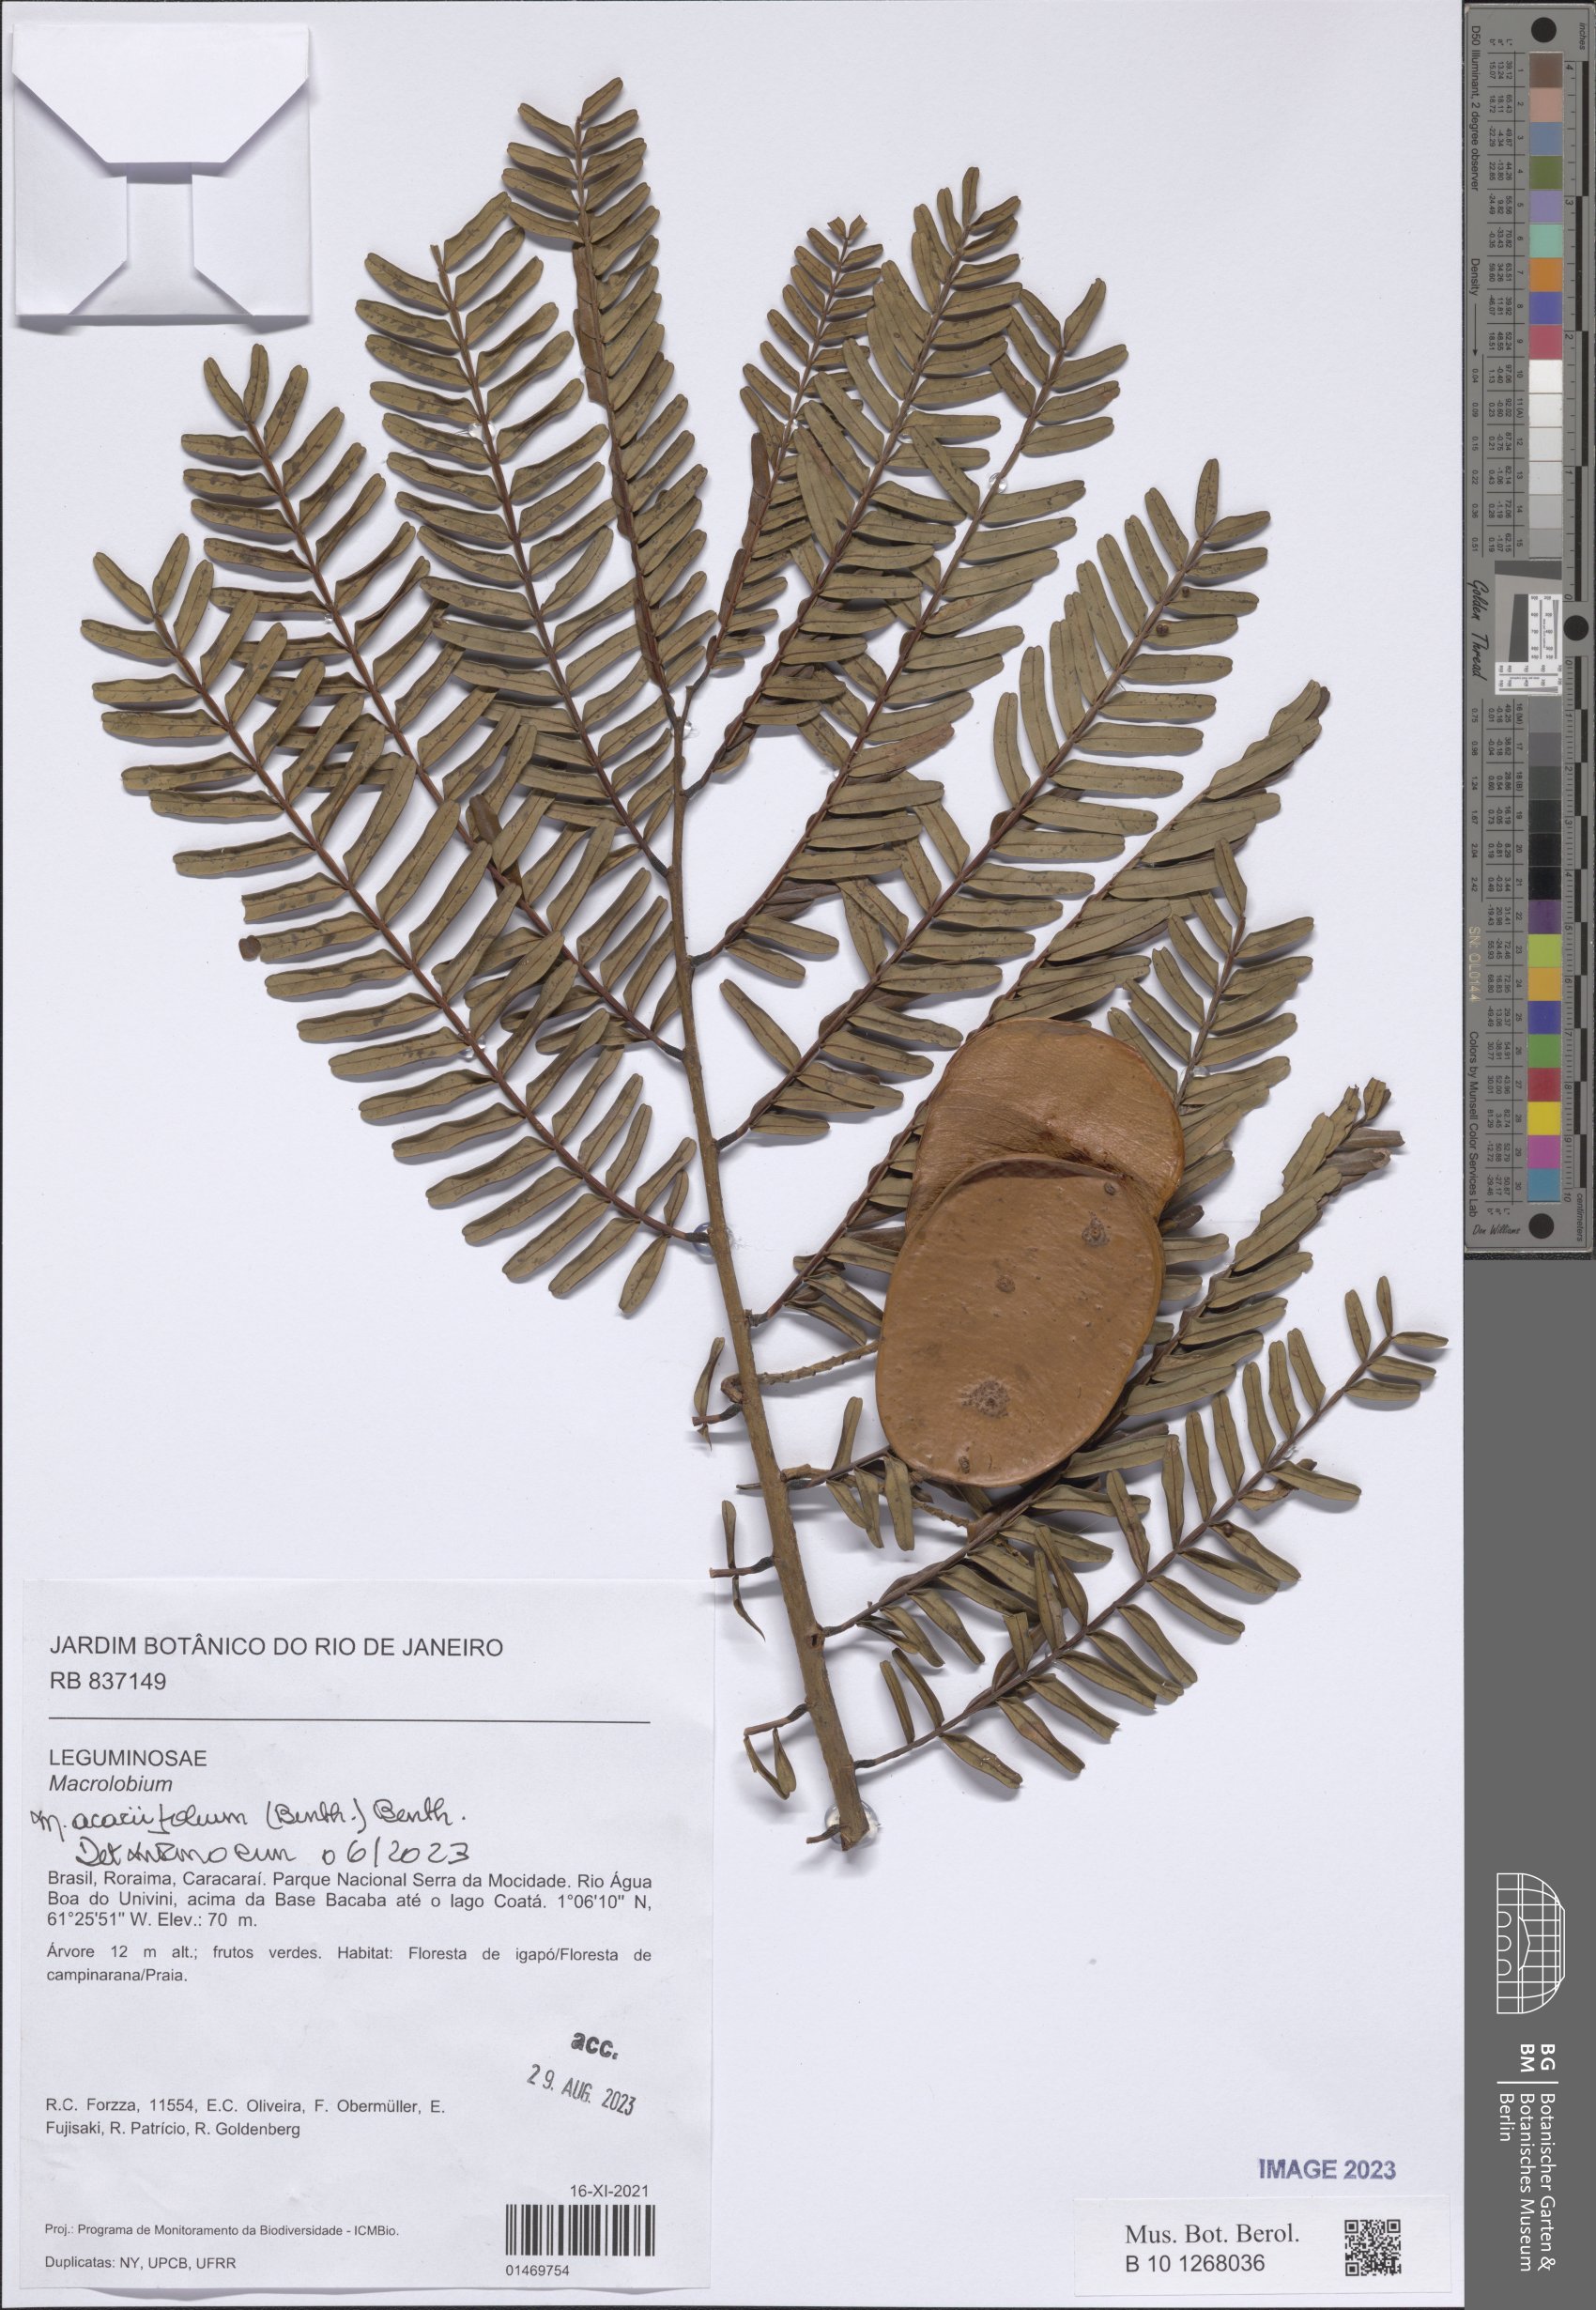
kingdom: Plantae
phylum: Tracheophyta
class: Magnoliopsida
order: Fabales
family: Fabaceae
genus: Macrolobium
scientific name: Macrolobium acaciifolium
